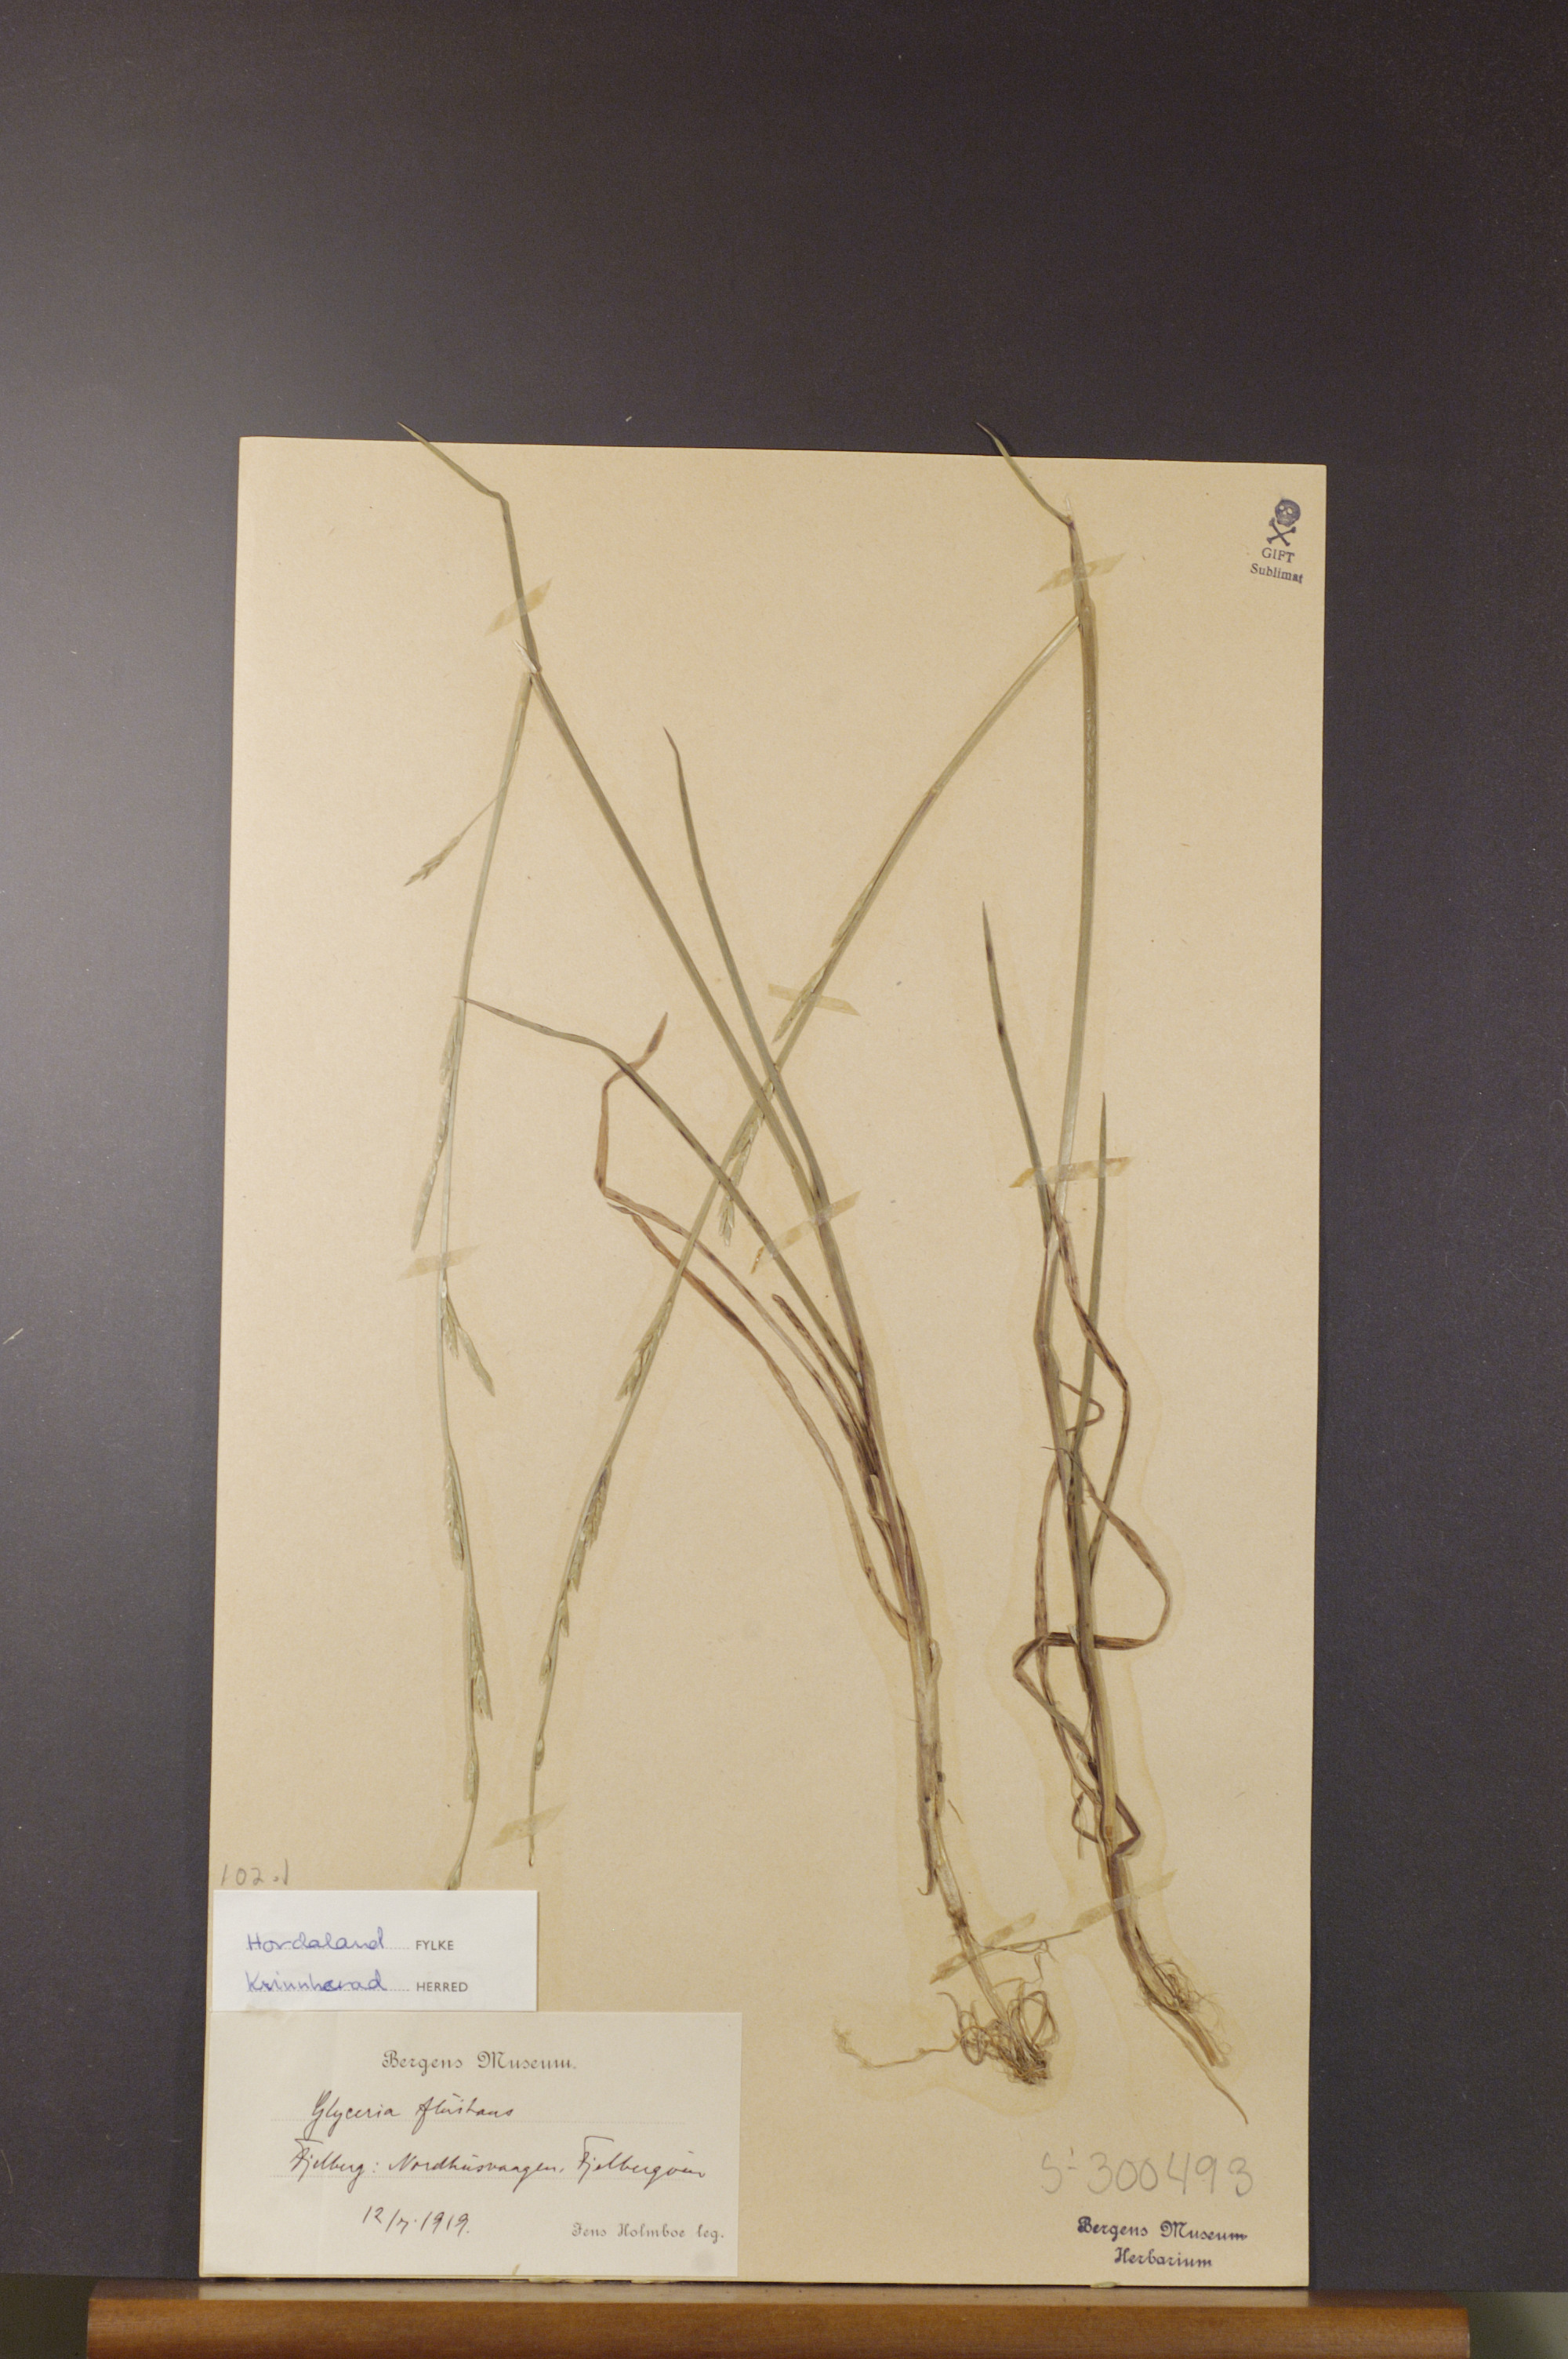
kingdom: Plantae
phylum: Tracheophyta
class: Liliopsida
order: Poales
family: Poaceae
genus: Glyceria
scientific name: Glyceria fluitans
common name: Floating sweet-grass
